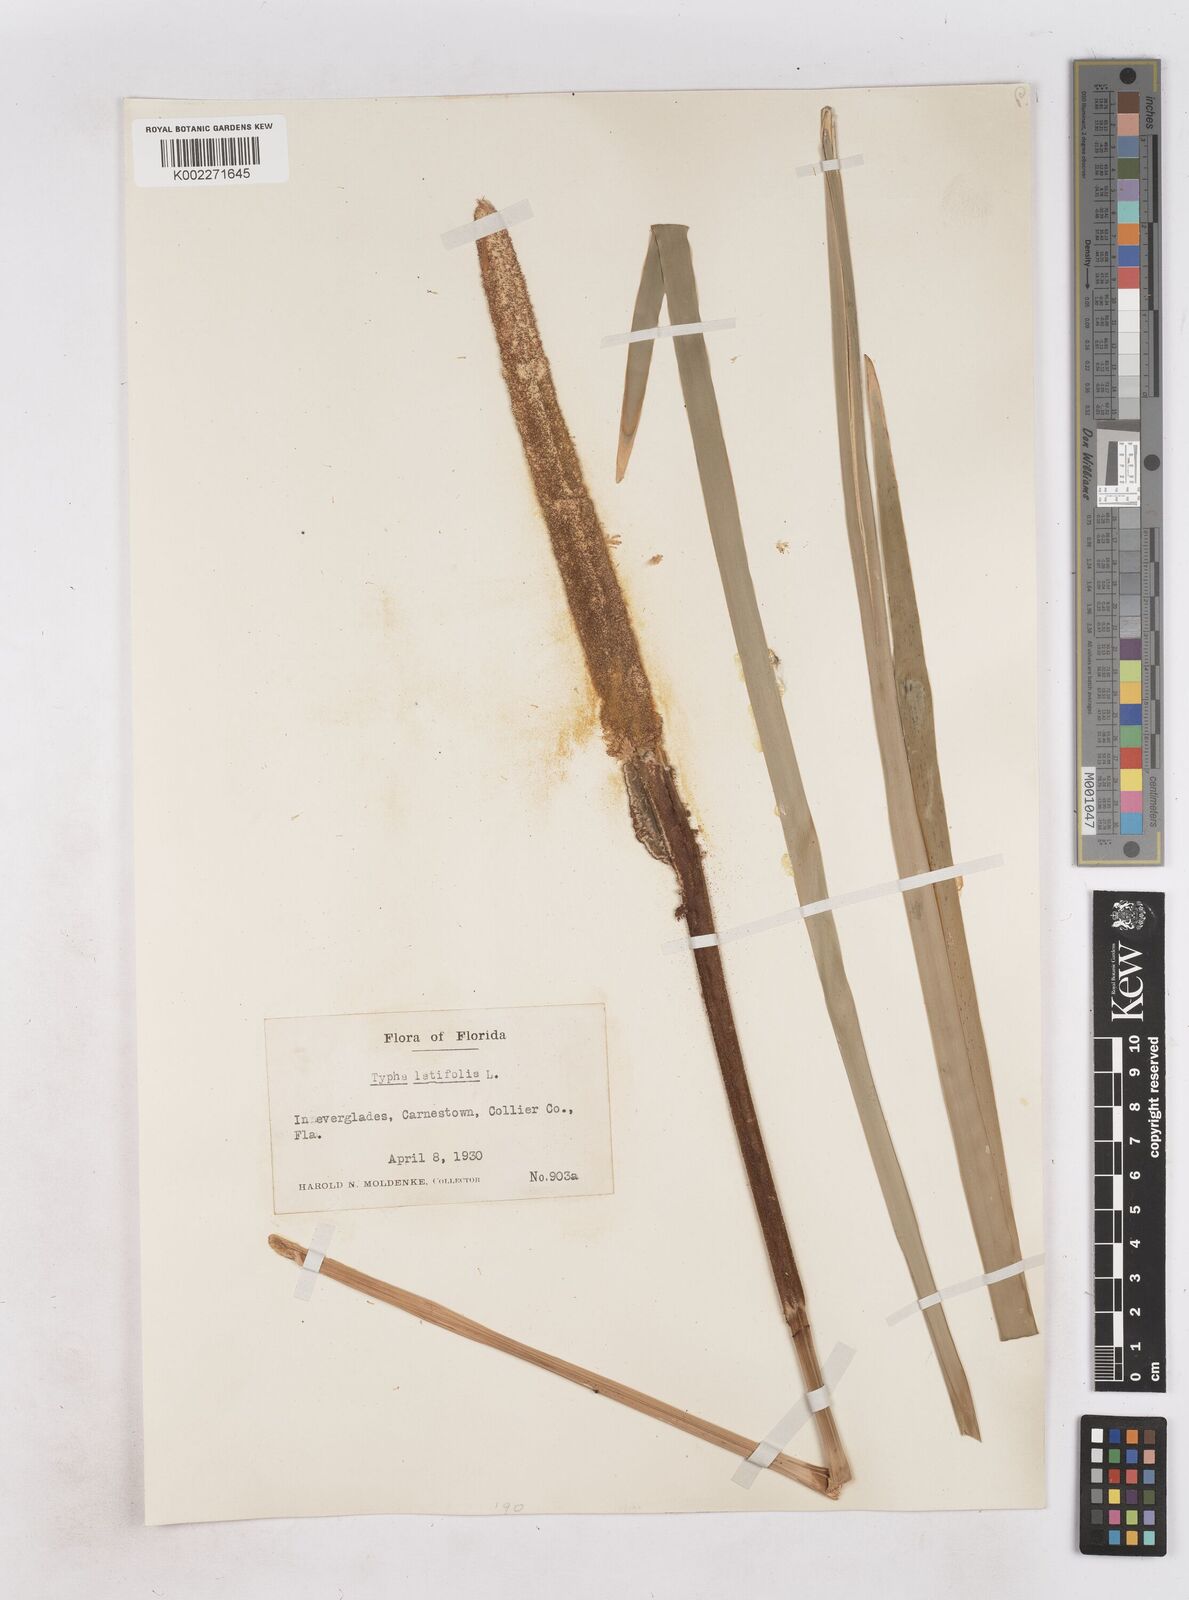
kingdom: Plantae
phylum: Tracheophyta
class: Liliopsida
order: Poales
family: Typhaceae
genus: Typha
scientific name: Typha latifolia
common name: Broadleaf cattail
